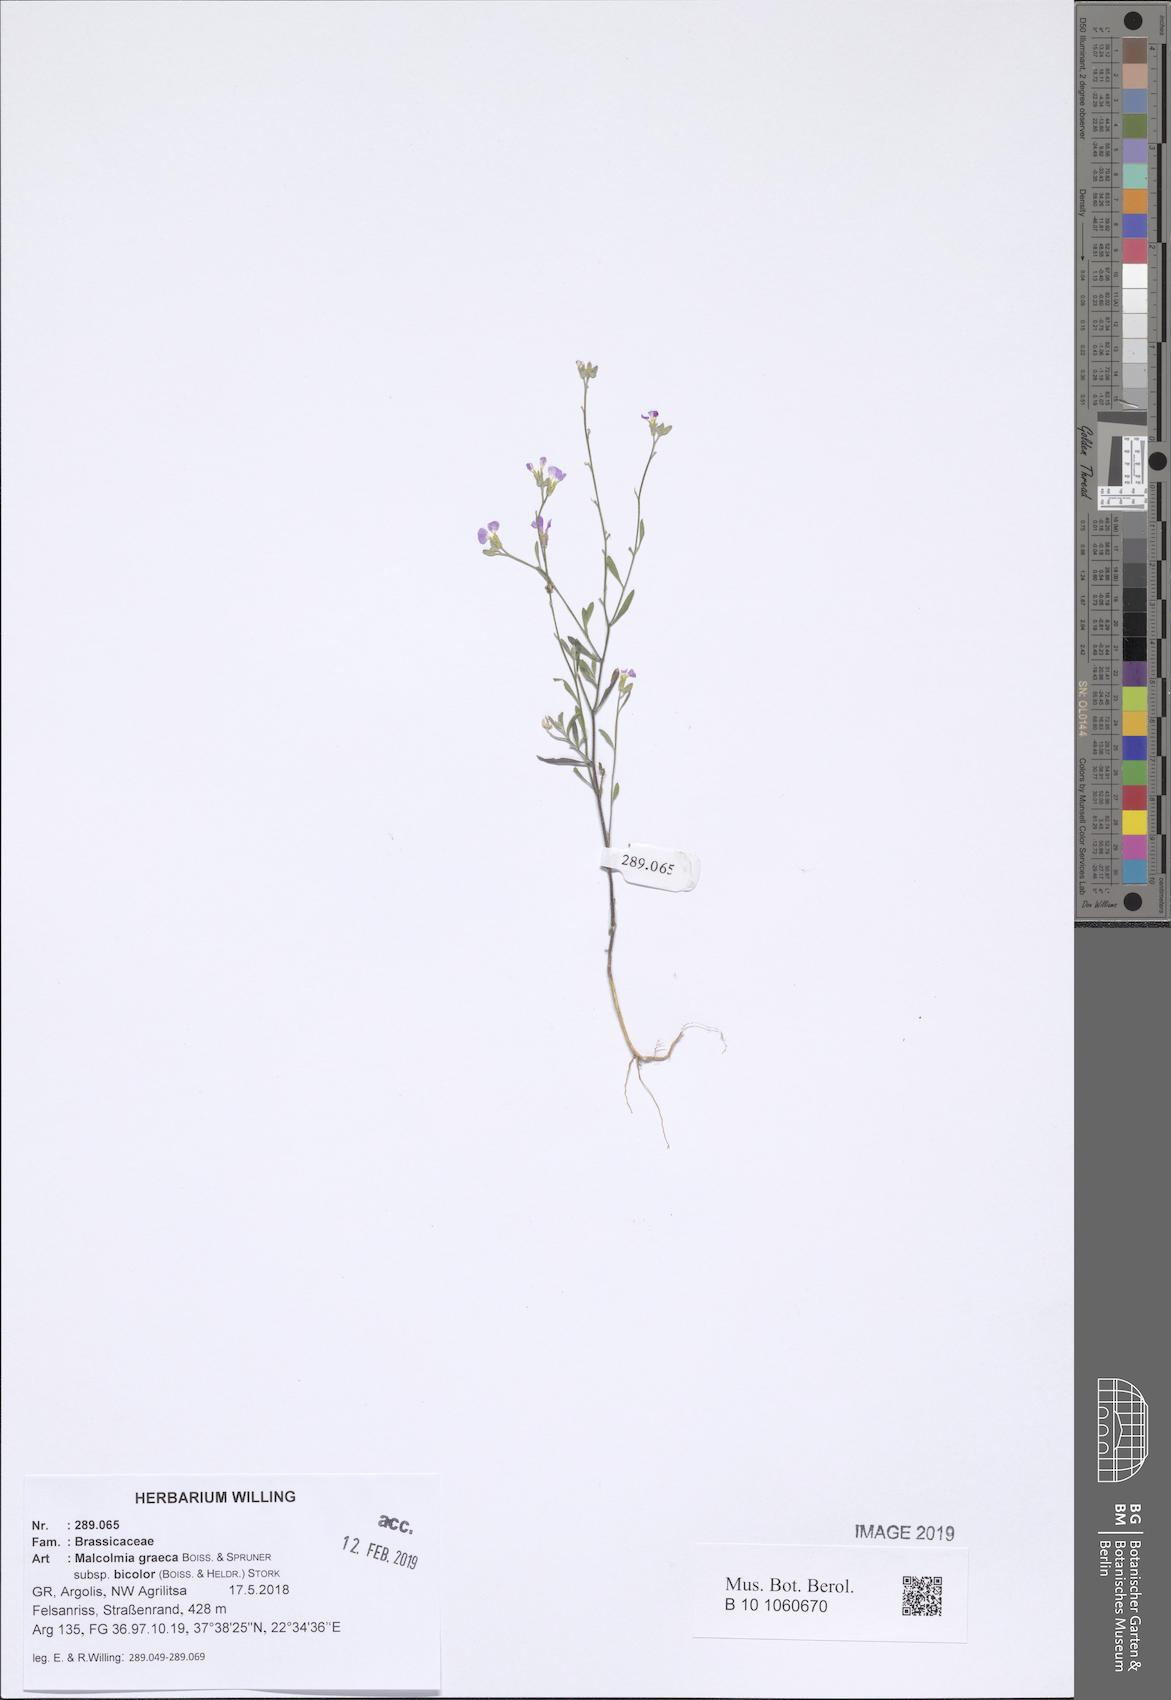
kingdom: Plantae
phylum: Tracheophyta
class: Magnoliopsida
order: Brassicales
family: Brassicaceae
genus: Malcolmia
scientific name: Malcolmia graeca
